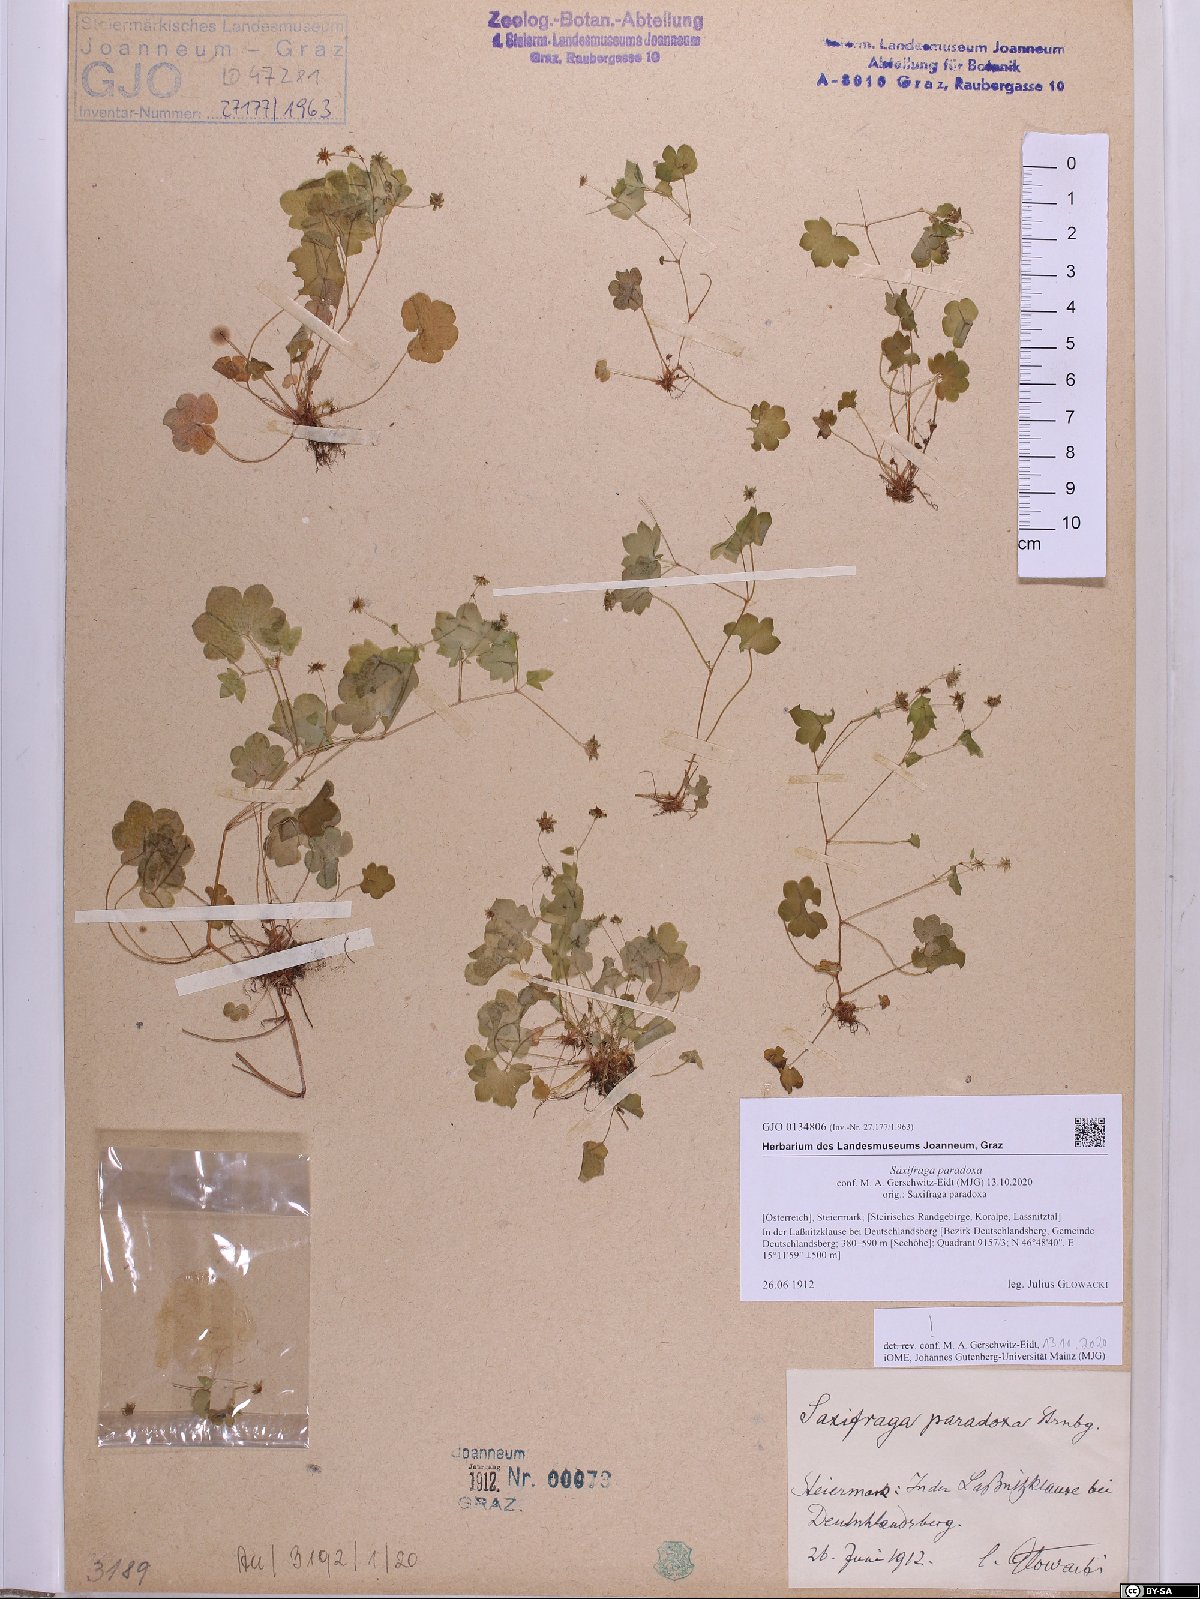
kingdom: Plantae
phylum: Tracheophyta
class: Magnoliopsida
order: Saxifragales
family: Saxifragaceae
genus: Saxifraga
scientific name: Saxifraga paradoxa
